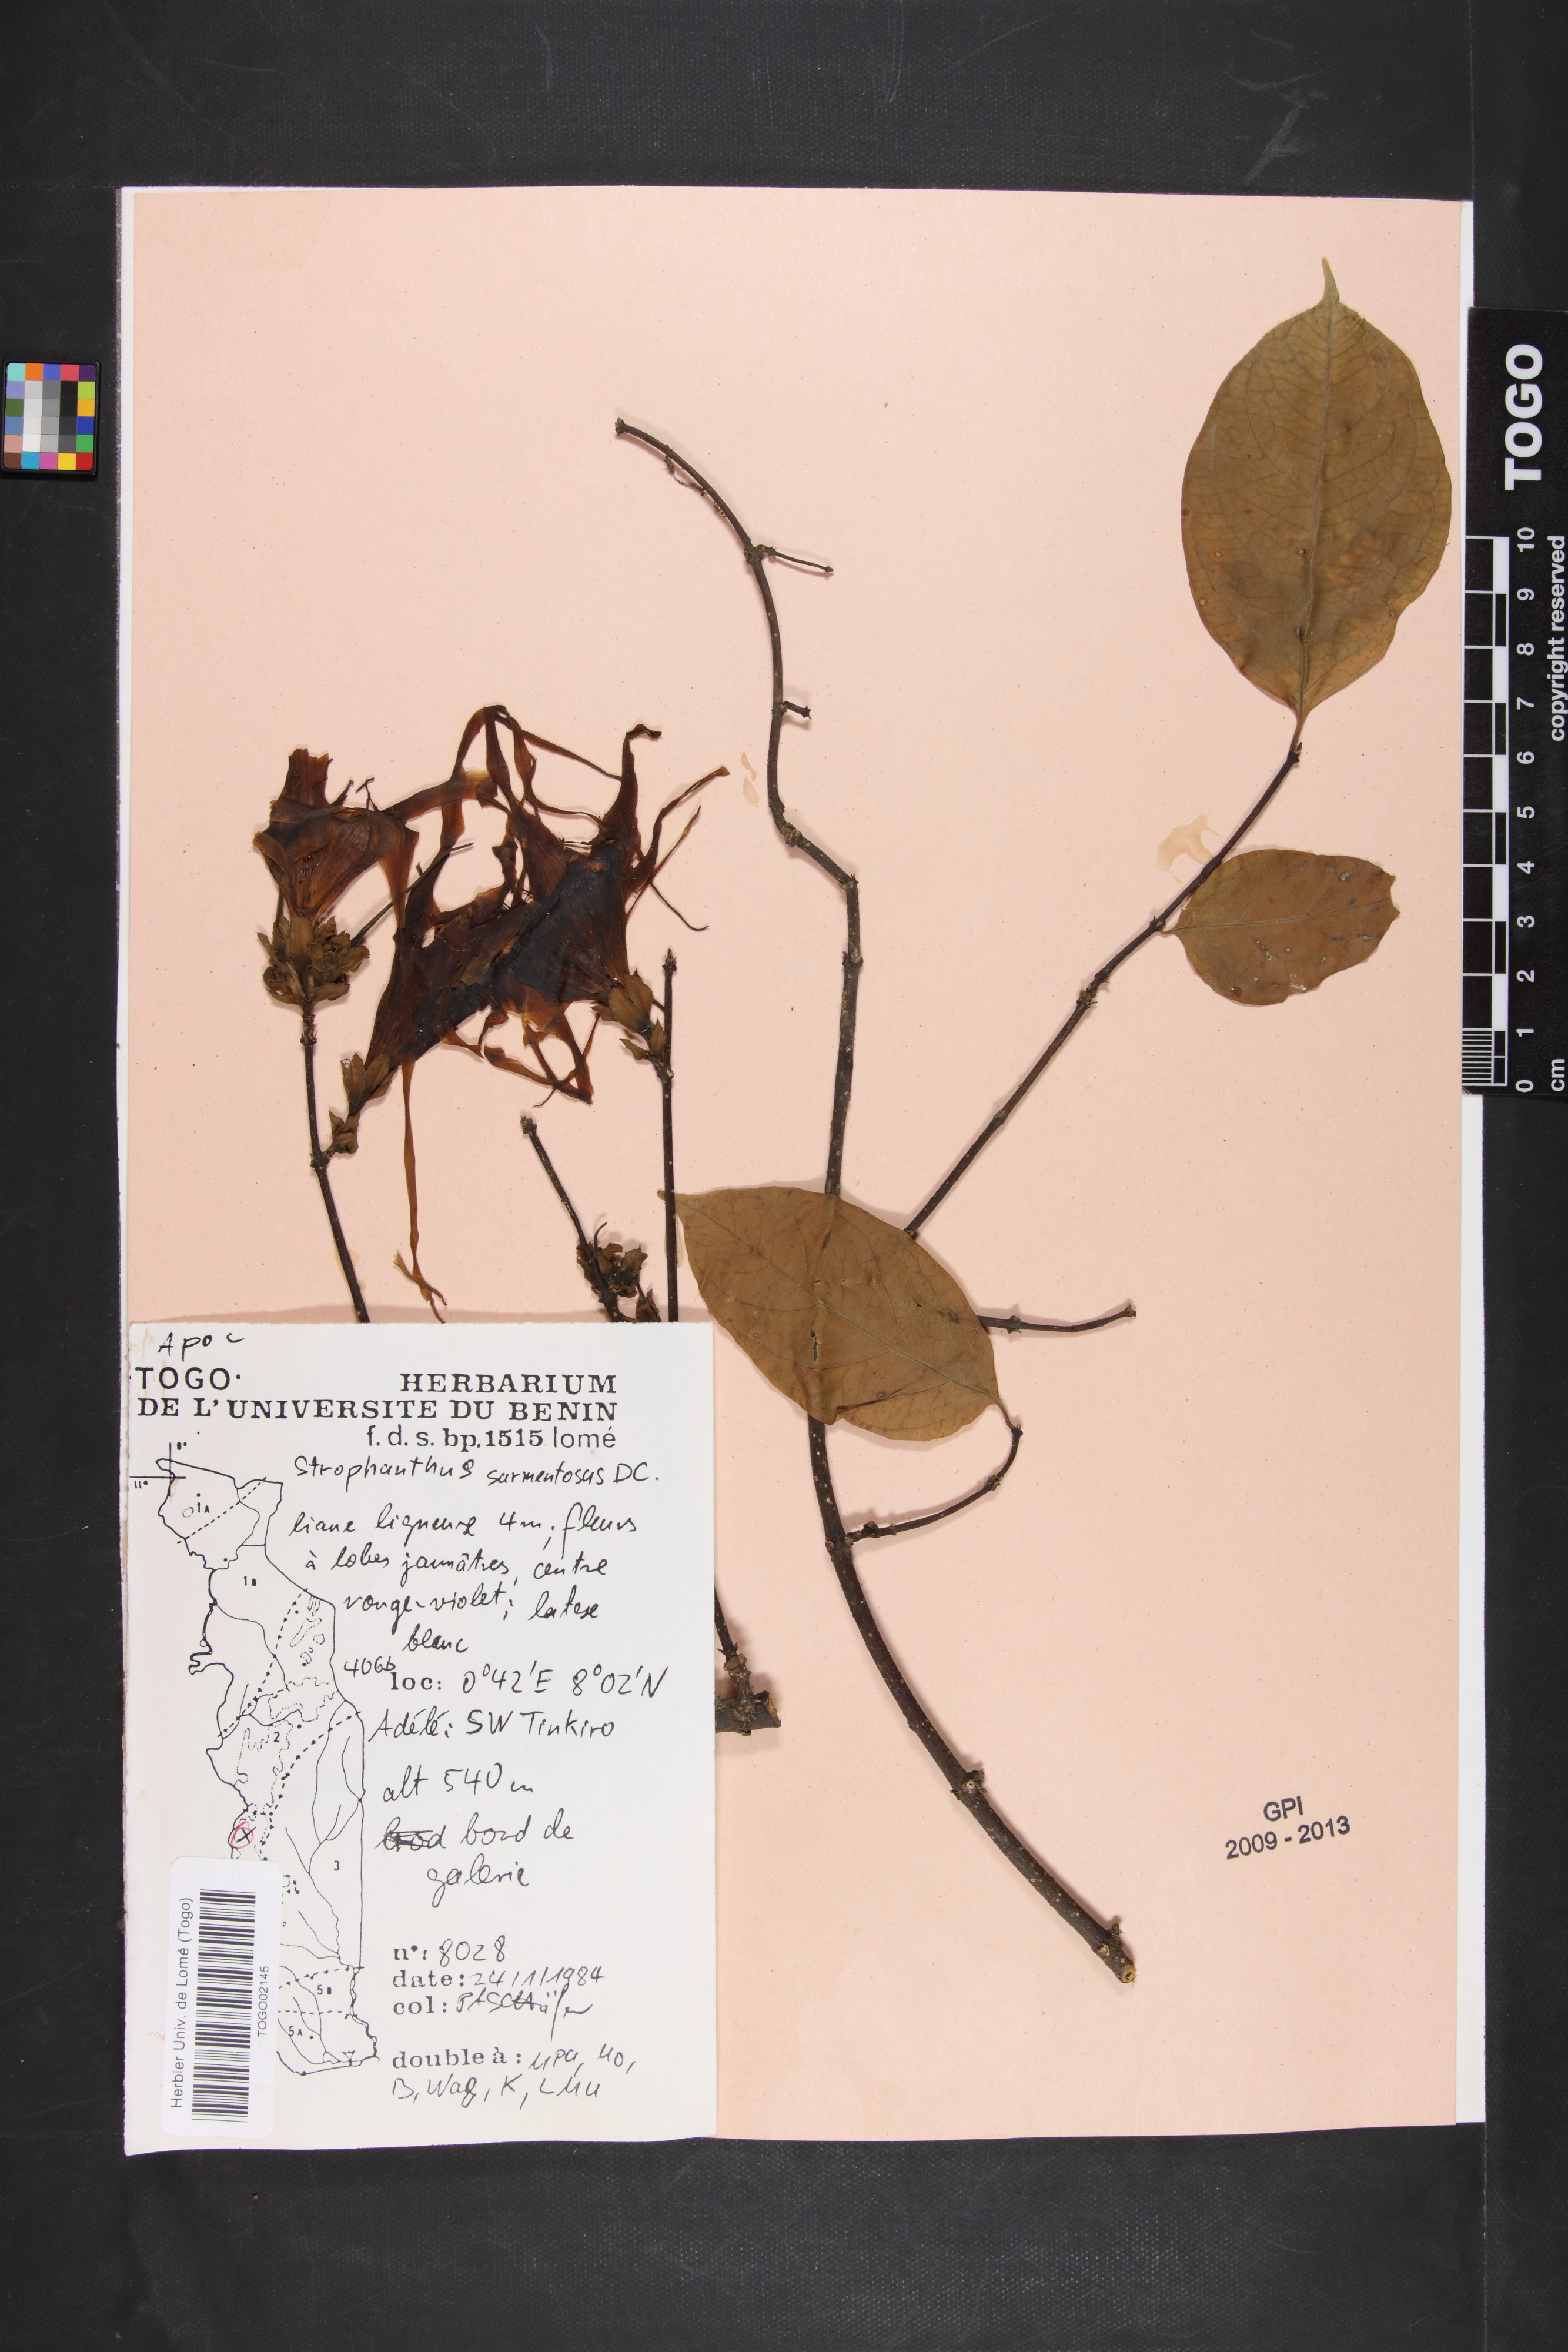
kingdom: Plantae
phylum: Tracheophyta
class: Magnoliopsida
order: Gentianales
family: Apocynaceae
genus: Strophanthus
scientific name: Strophanthus sarmentosus
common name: Poison arrowvine
